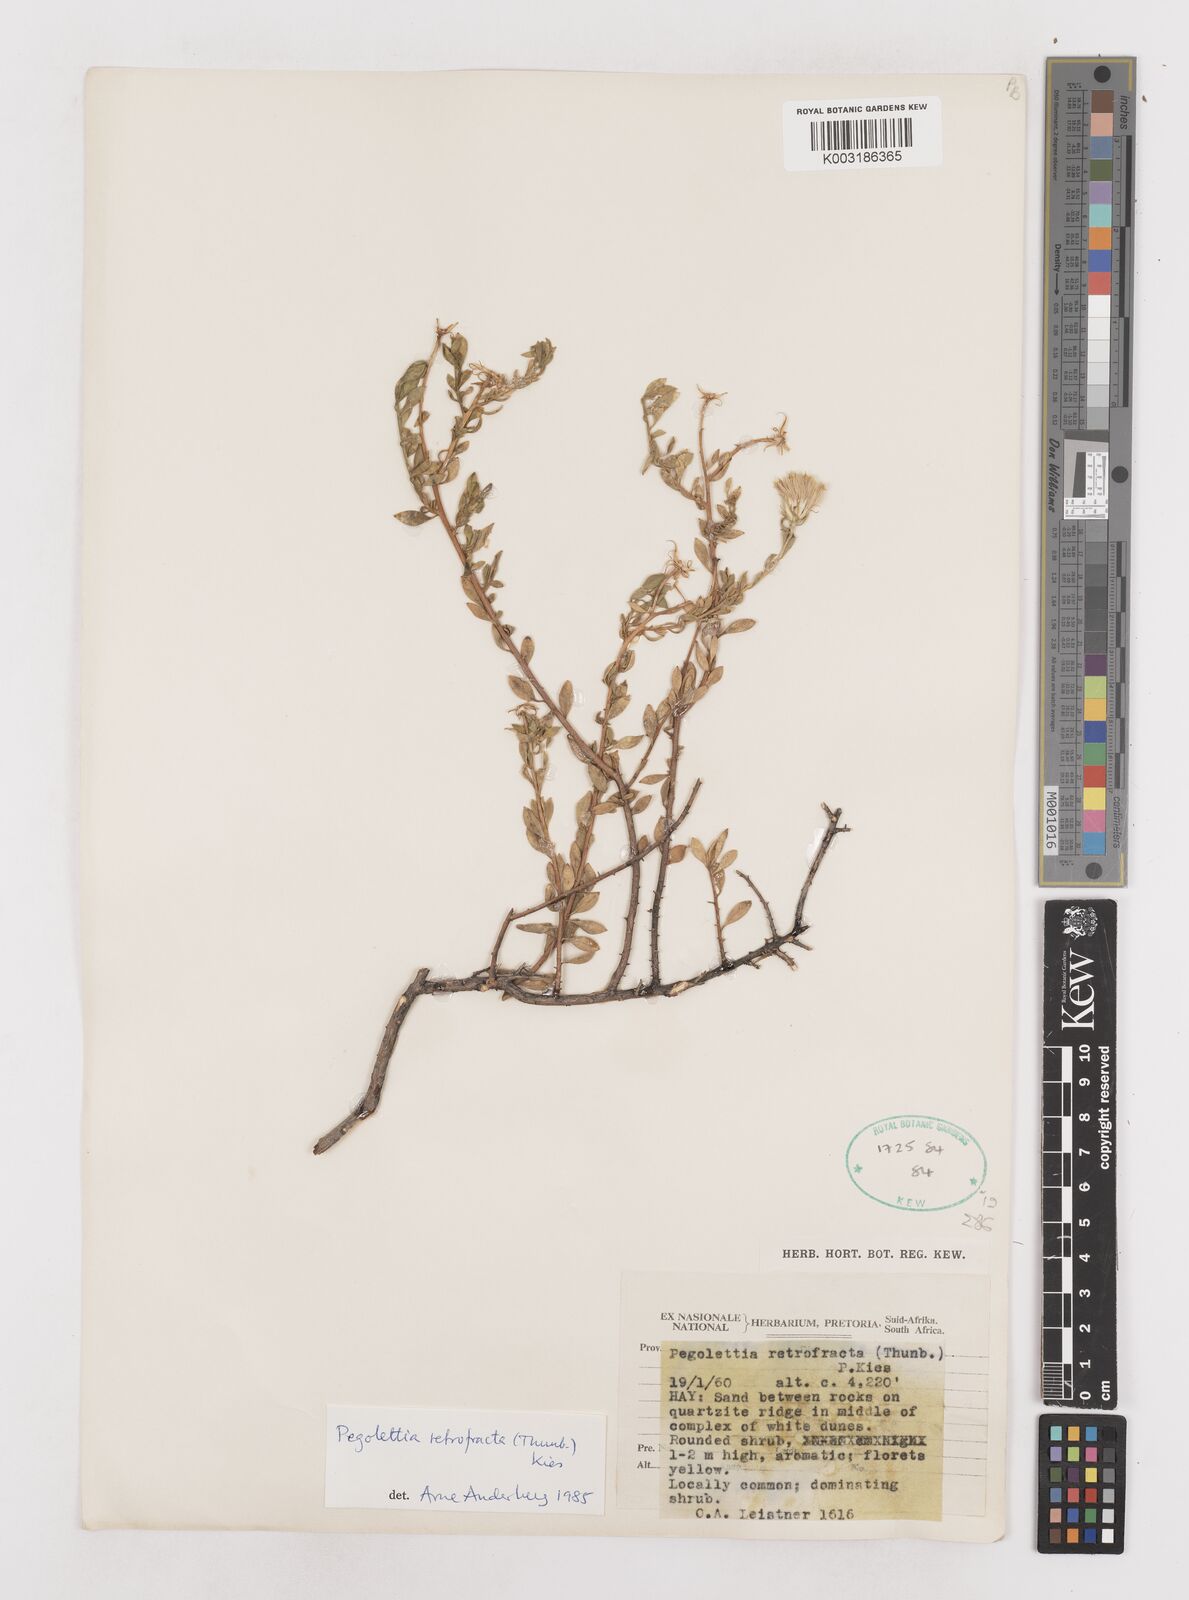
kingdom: Plantae
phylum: Tracheophyta
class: Magnoliopsida
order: Asterales
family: Asteraceae
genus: Pegolettia
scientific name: Pegolettia retrofracta
